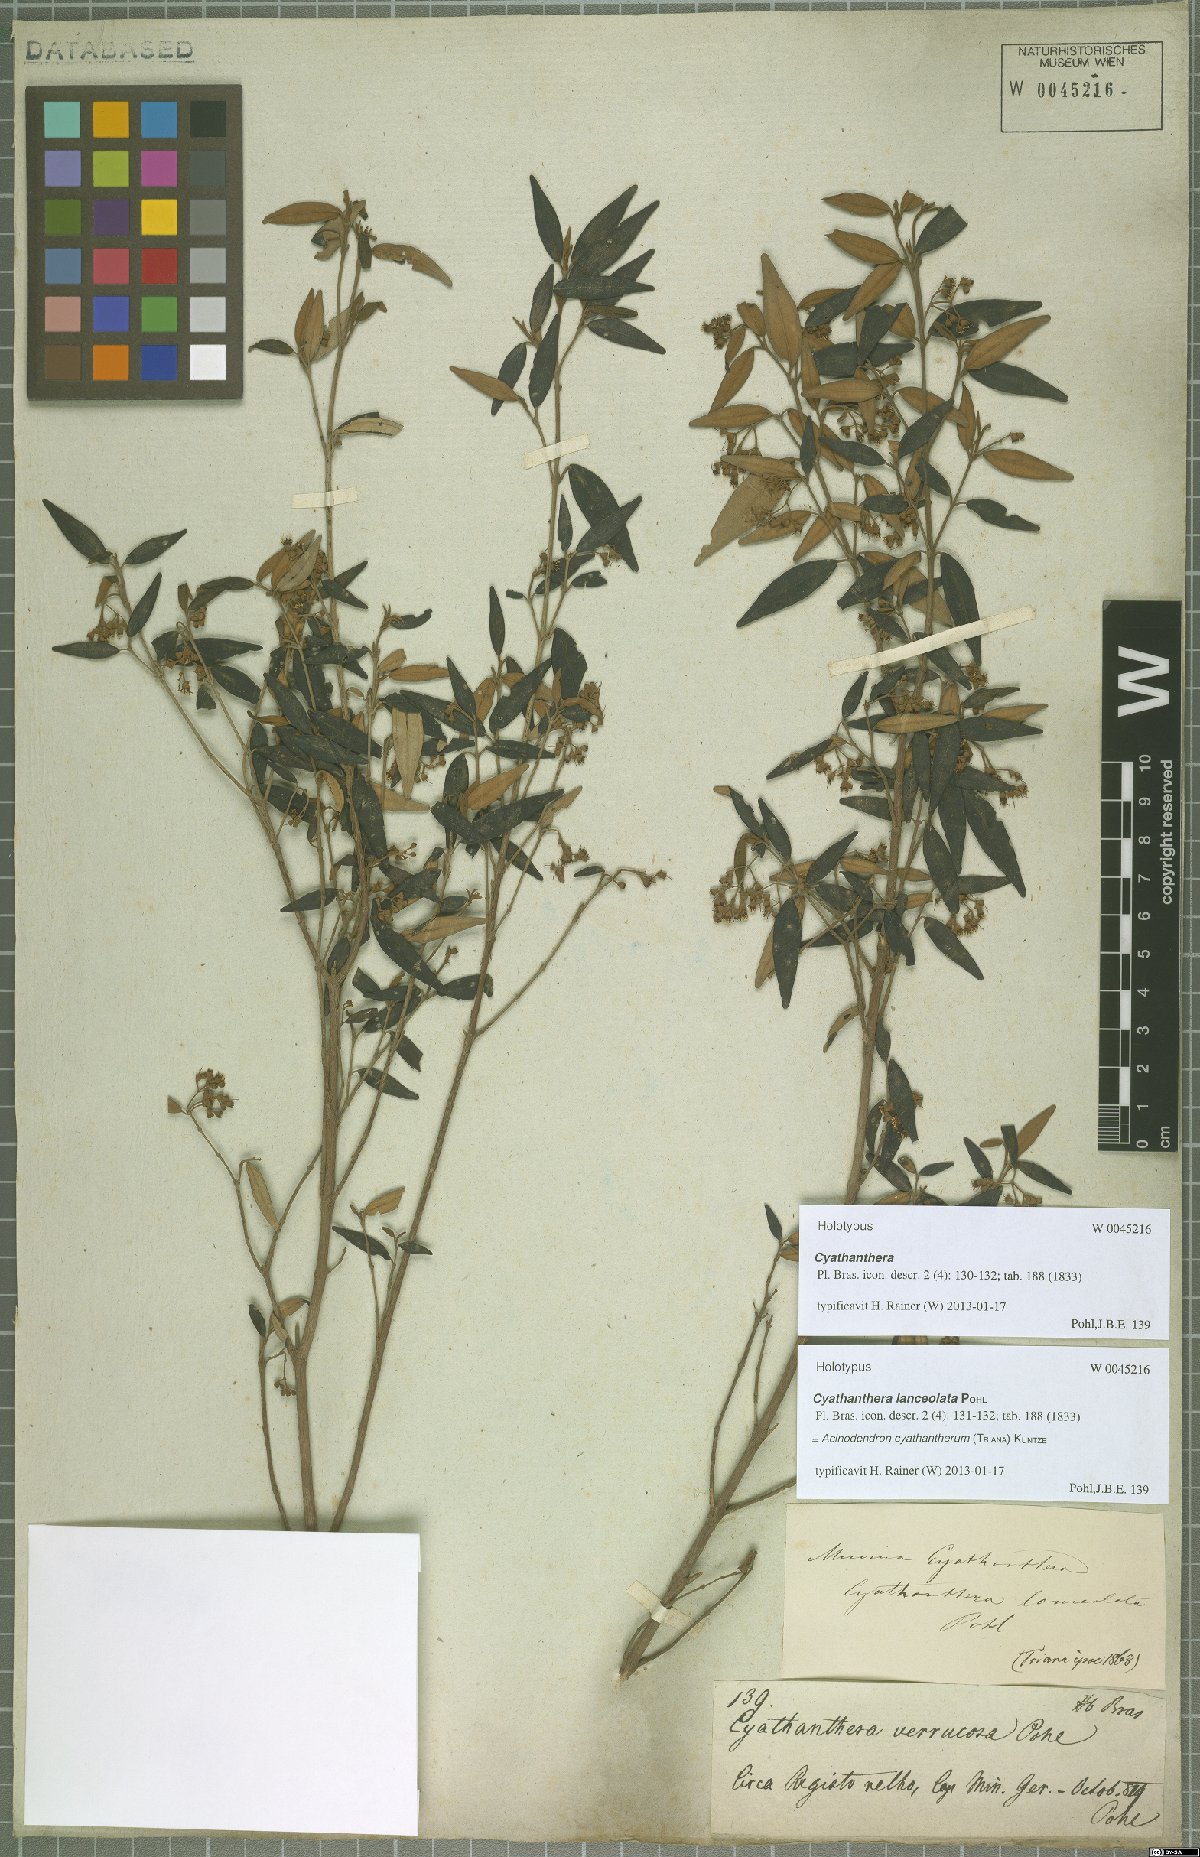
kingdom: Plantae
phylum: Tracheophyta
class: Magnoliopsida
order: Myrtales
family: Melastomataceae
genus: Miconia
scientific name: Miconia cyathanthera
